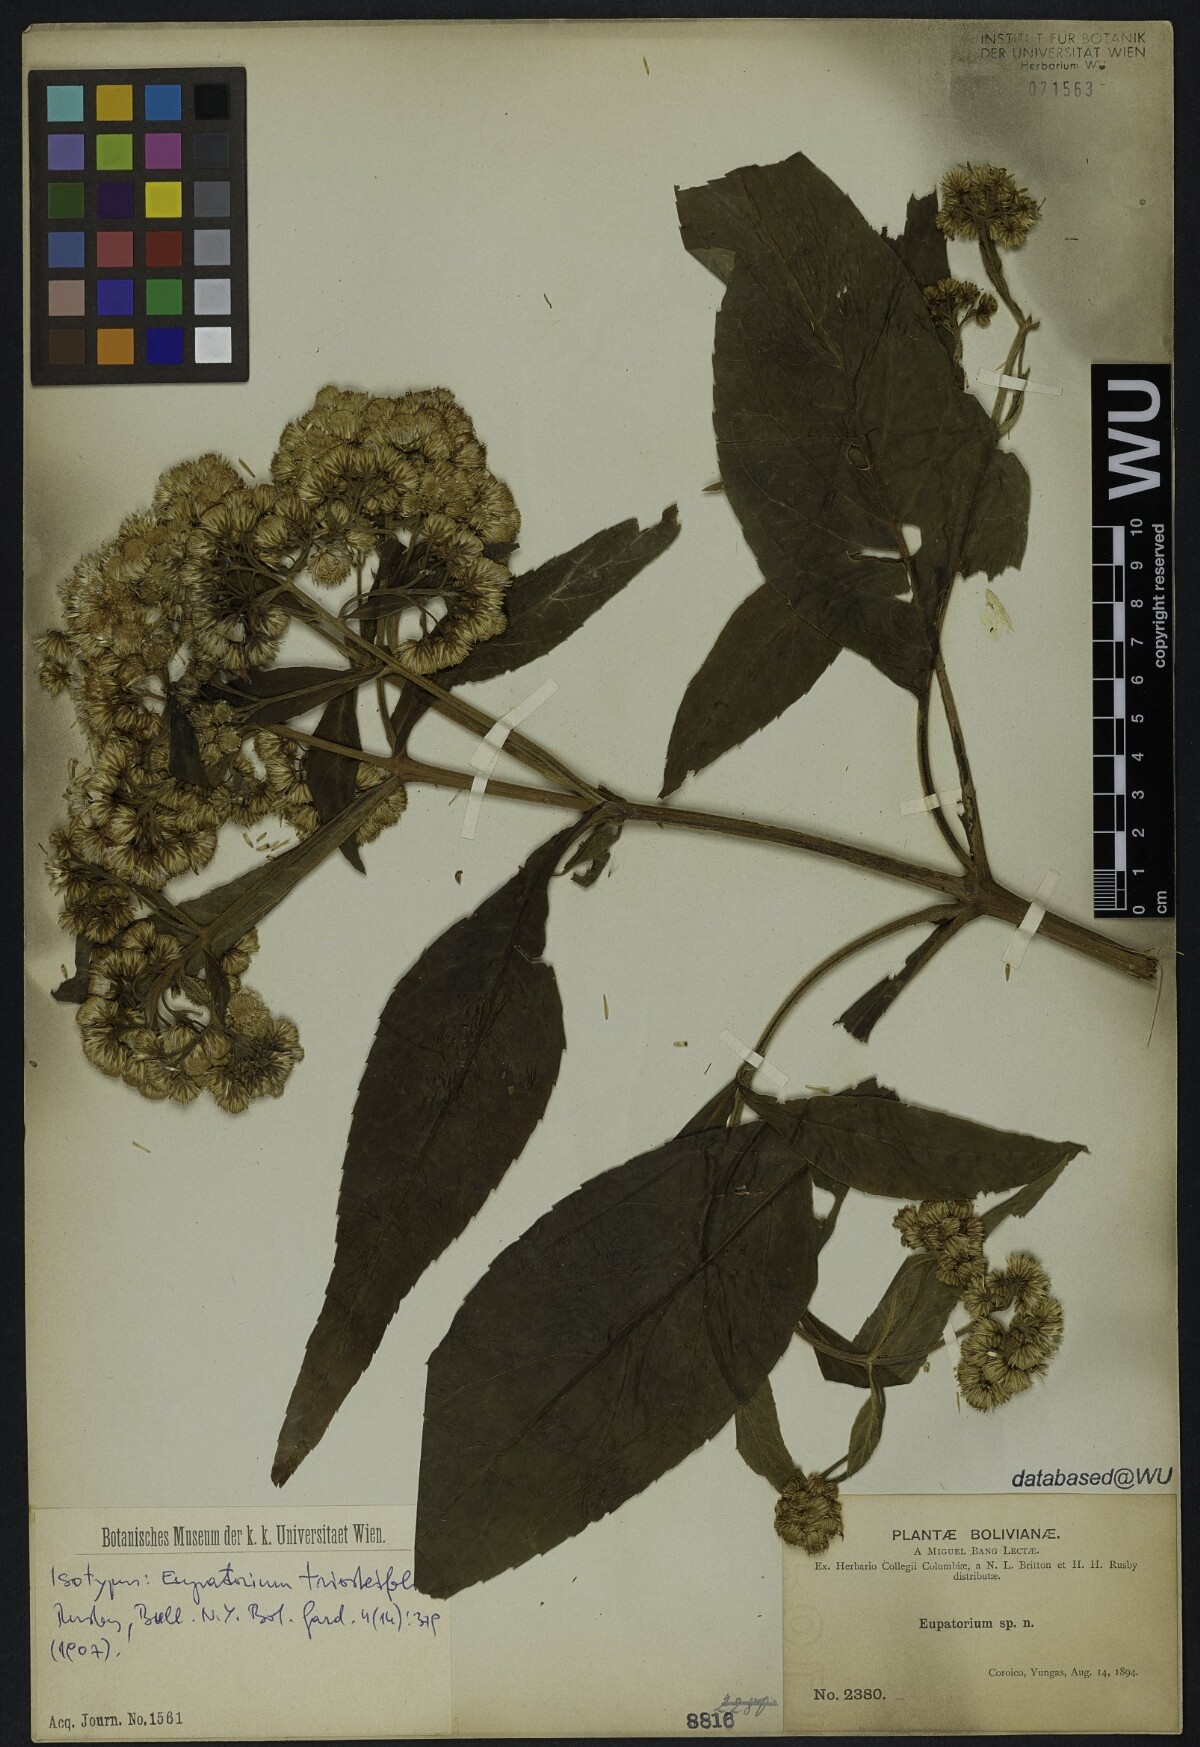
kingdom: Plantae
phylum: Tracheophyta
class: Magnoliopsida
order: Asterales
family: Asteraceae
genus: Ayapanopsis
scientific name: Ayapanopsis triosteifolia
